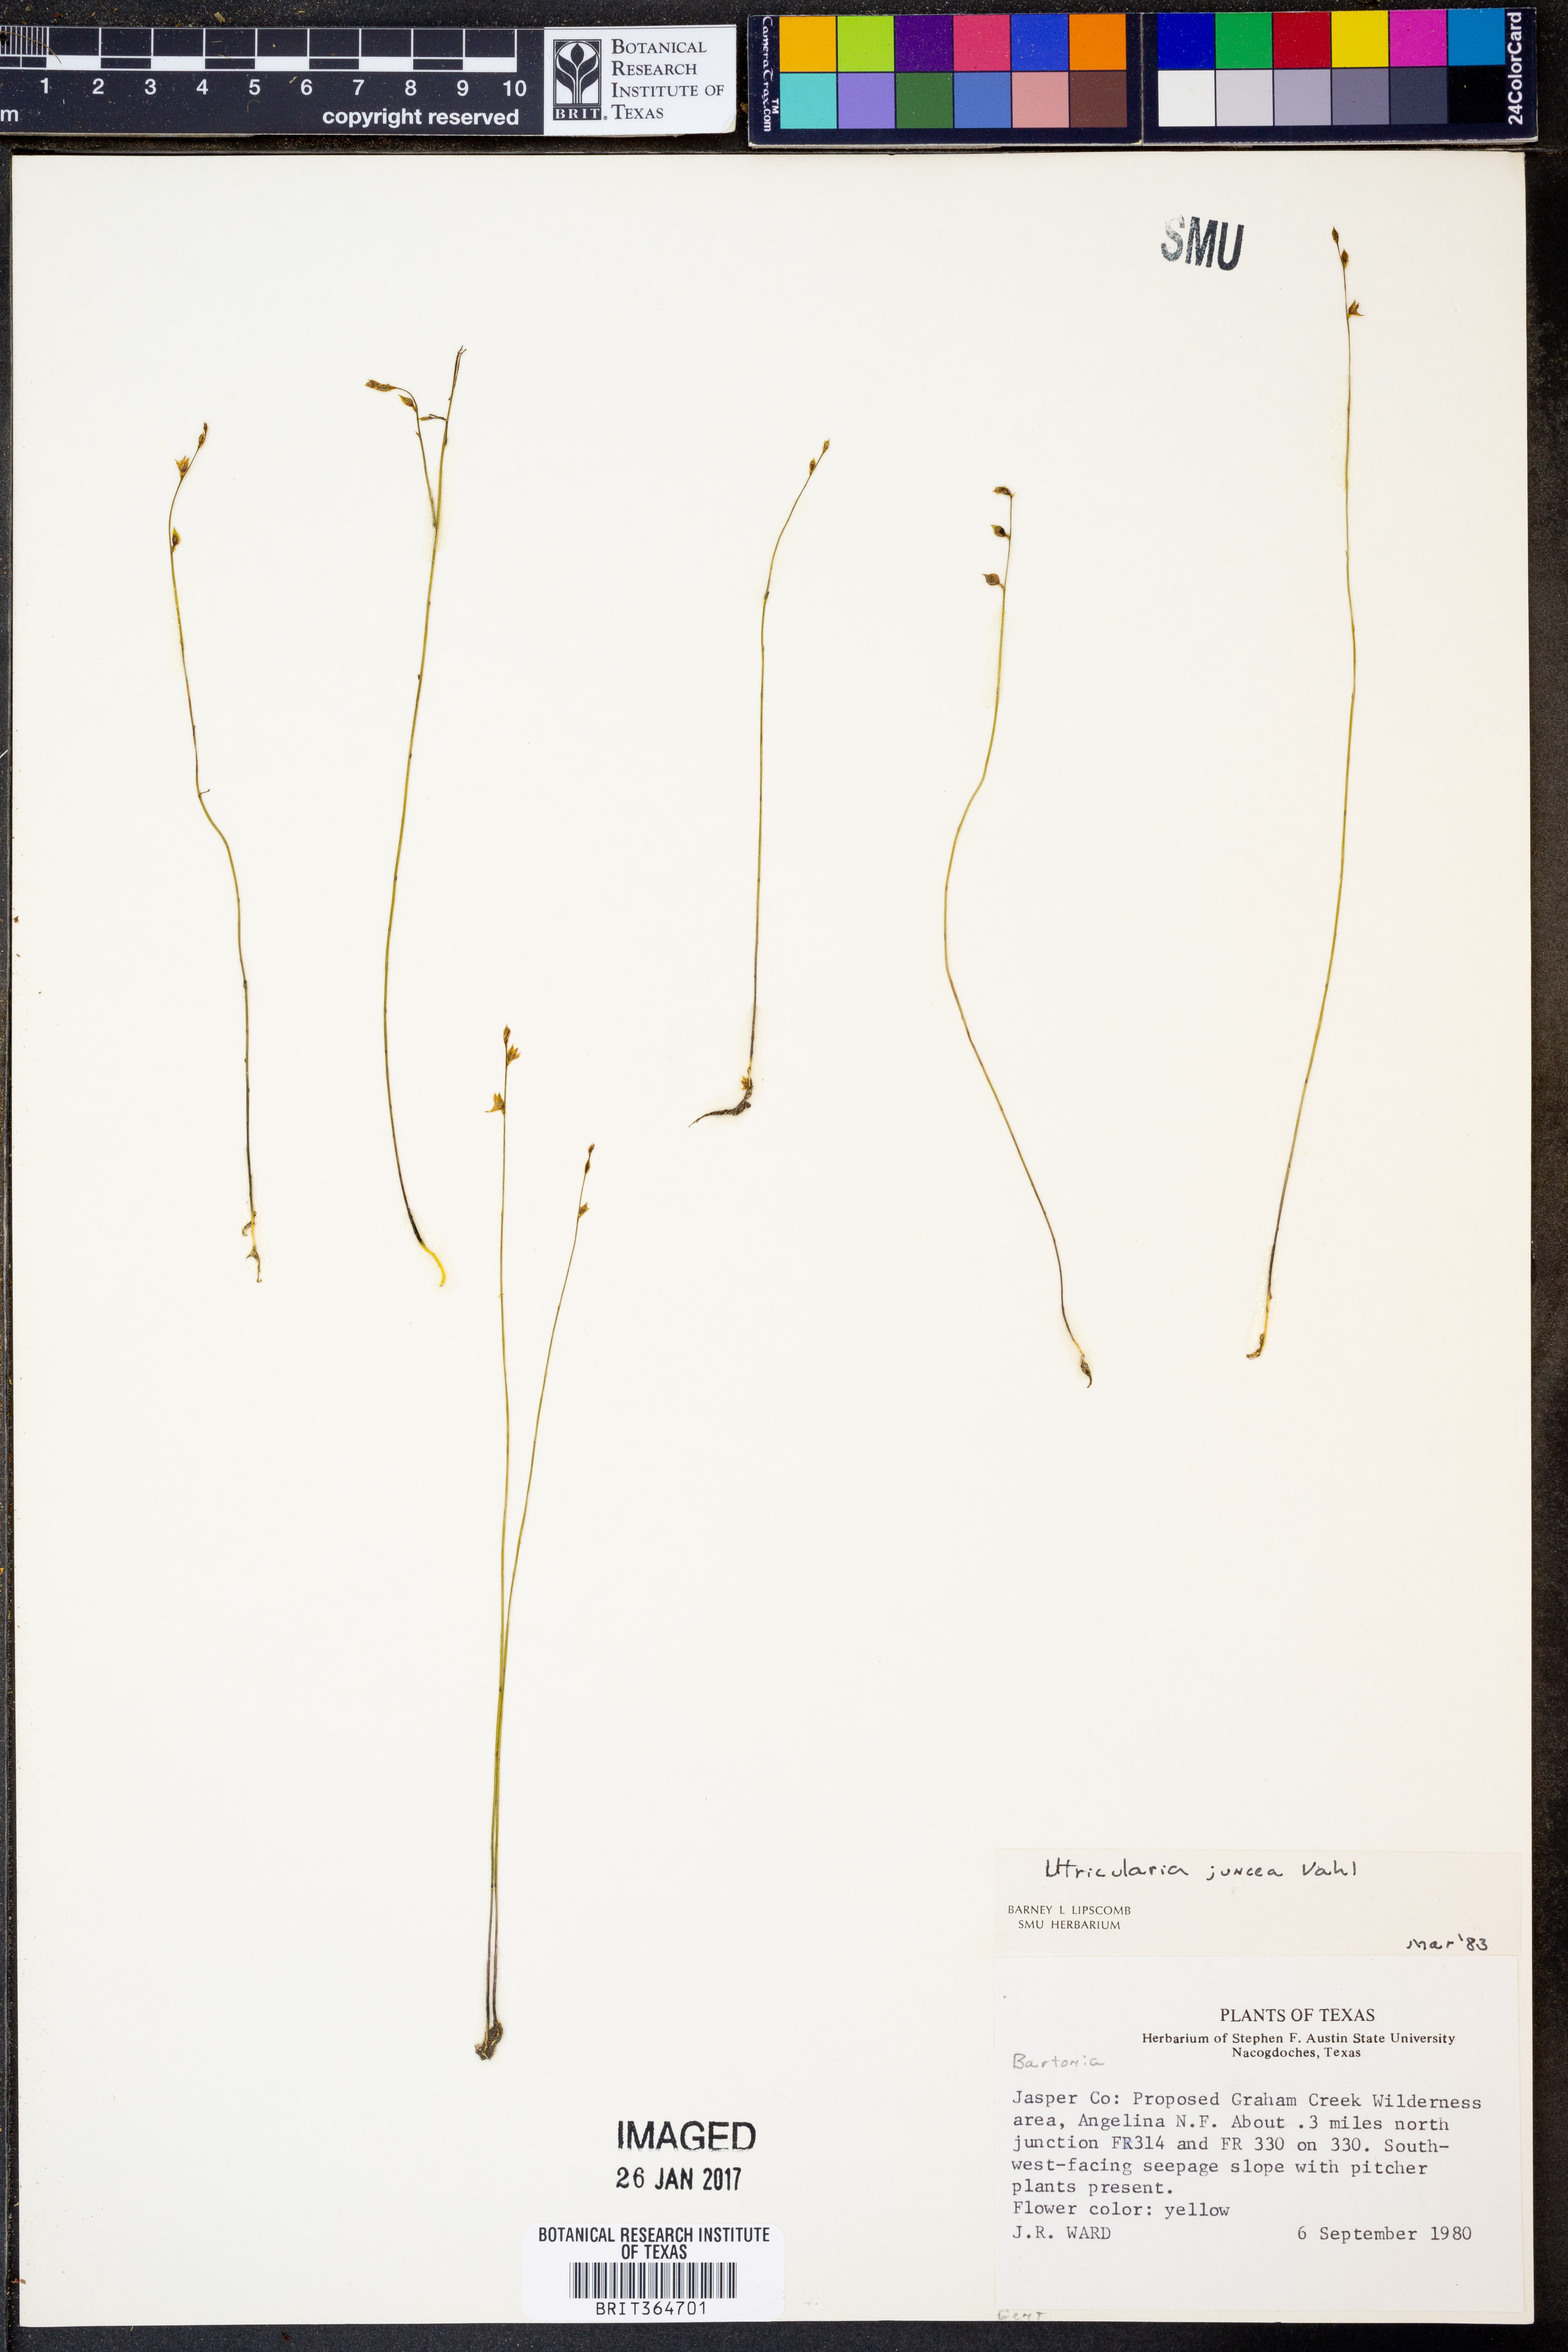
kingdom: Plantae
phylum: Tracheophyta
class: Magnoliopsida
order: Lamiales
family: Lentibulariaceae
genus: Utricularia
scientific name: Utricularia juncea
